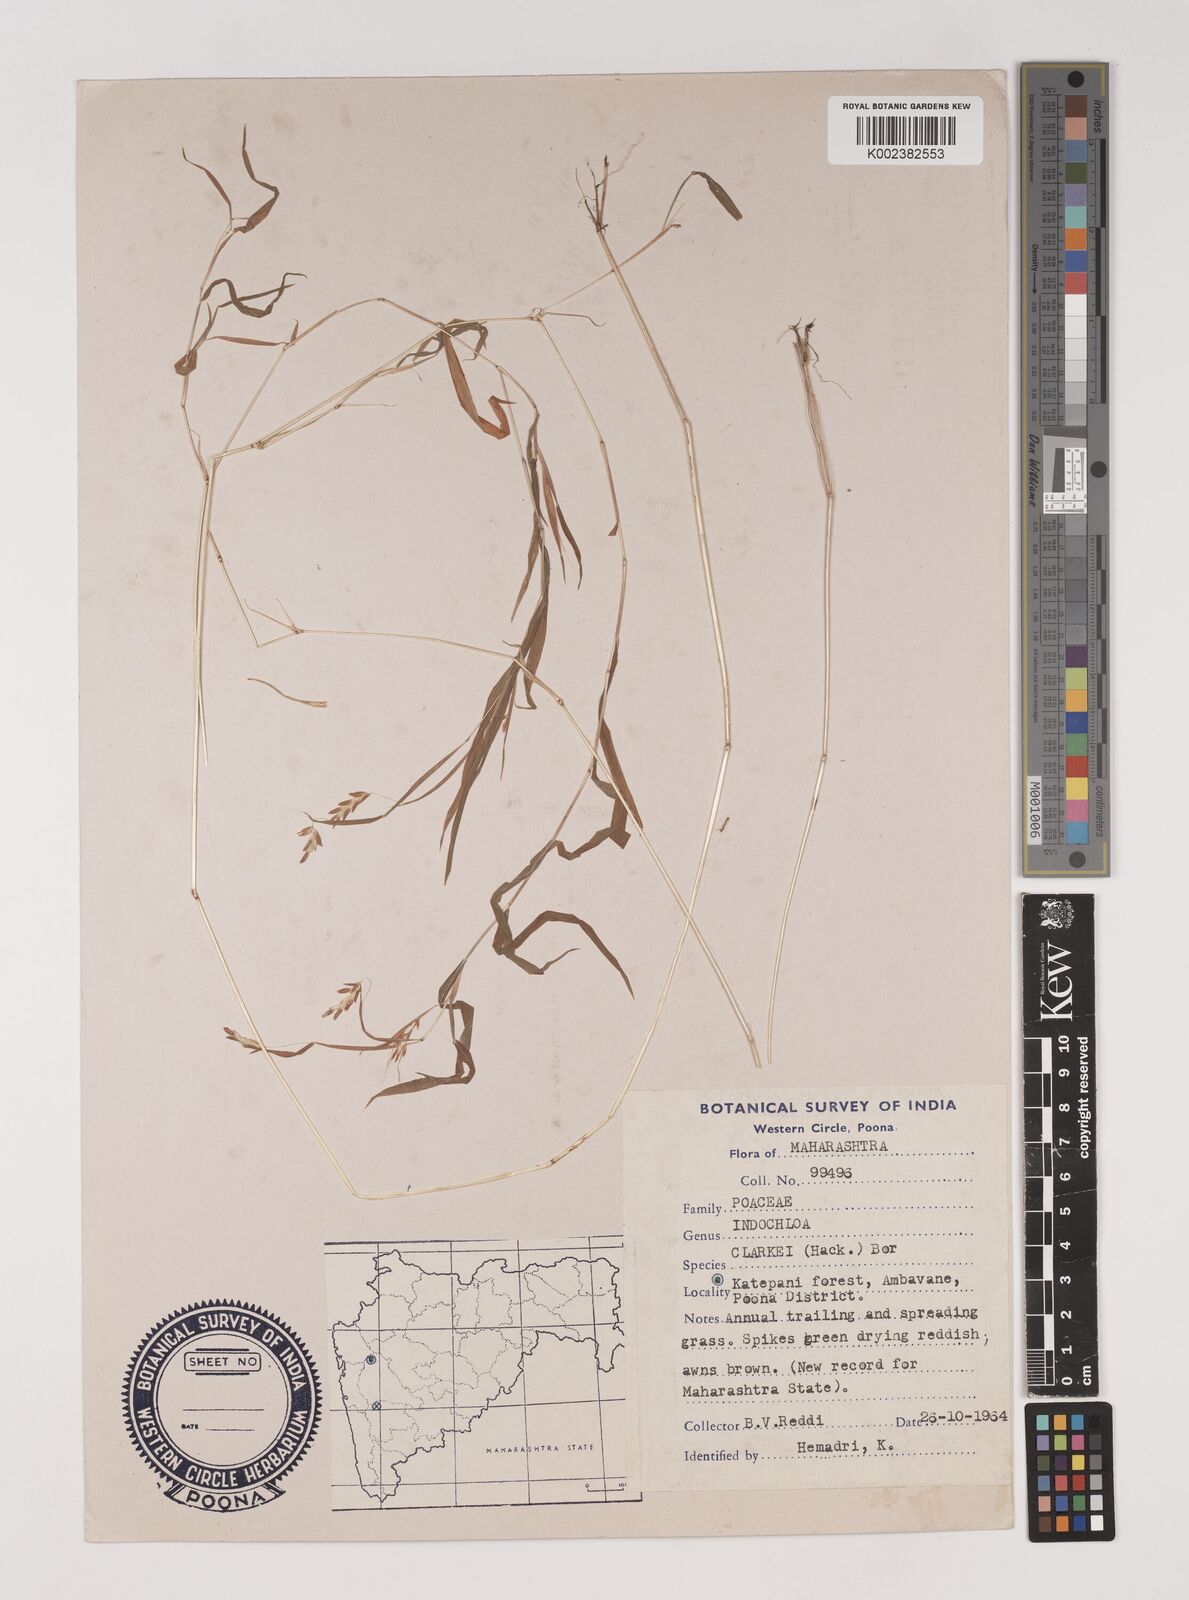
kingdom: Plantae
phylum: Tracheophyta
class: Liliopsida
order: Poales
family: Poaceae
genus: Euclasta
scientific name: Euclasta clarkei
